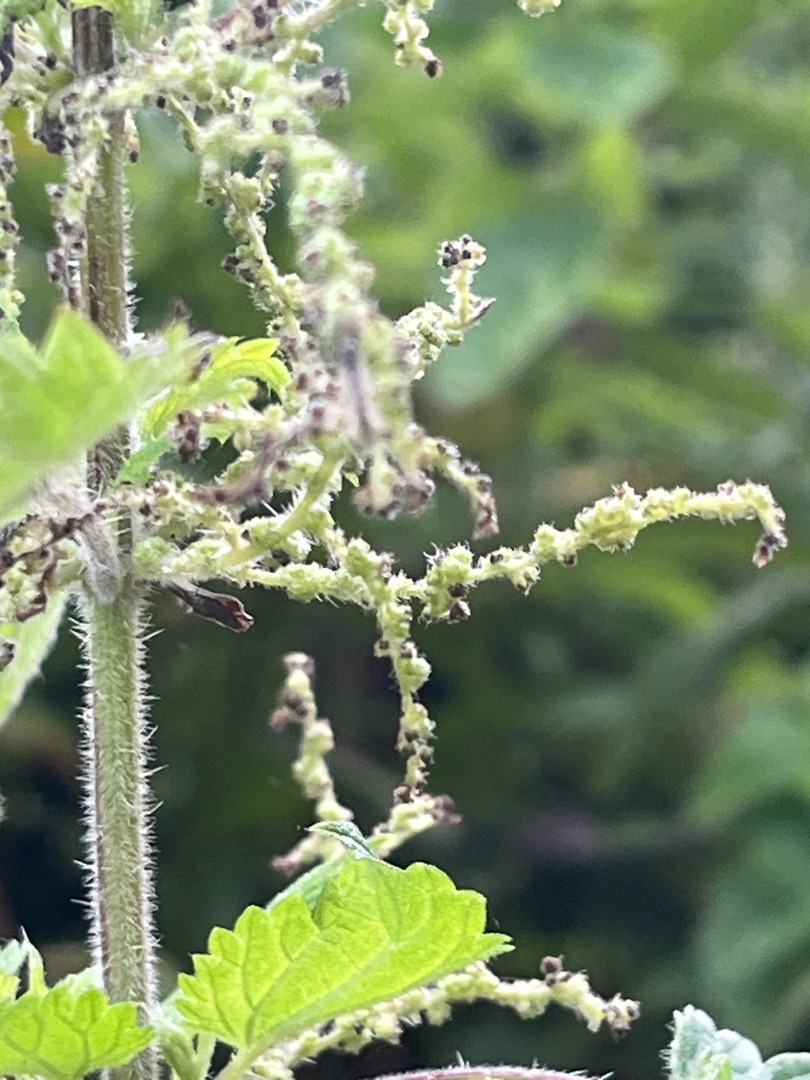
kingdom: Plantae
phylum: Tracheophyta
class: Magnoliopsida
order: Rosales
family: Urticaceae
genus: Urtica
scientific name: Urtica dioica
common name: Stor nælde
